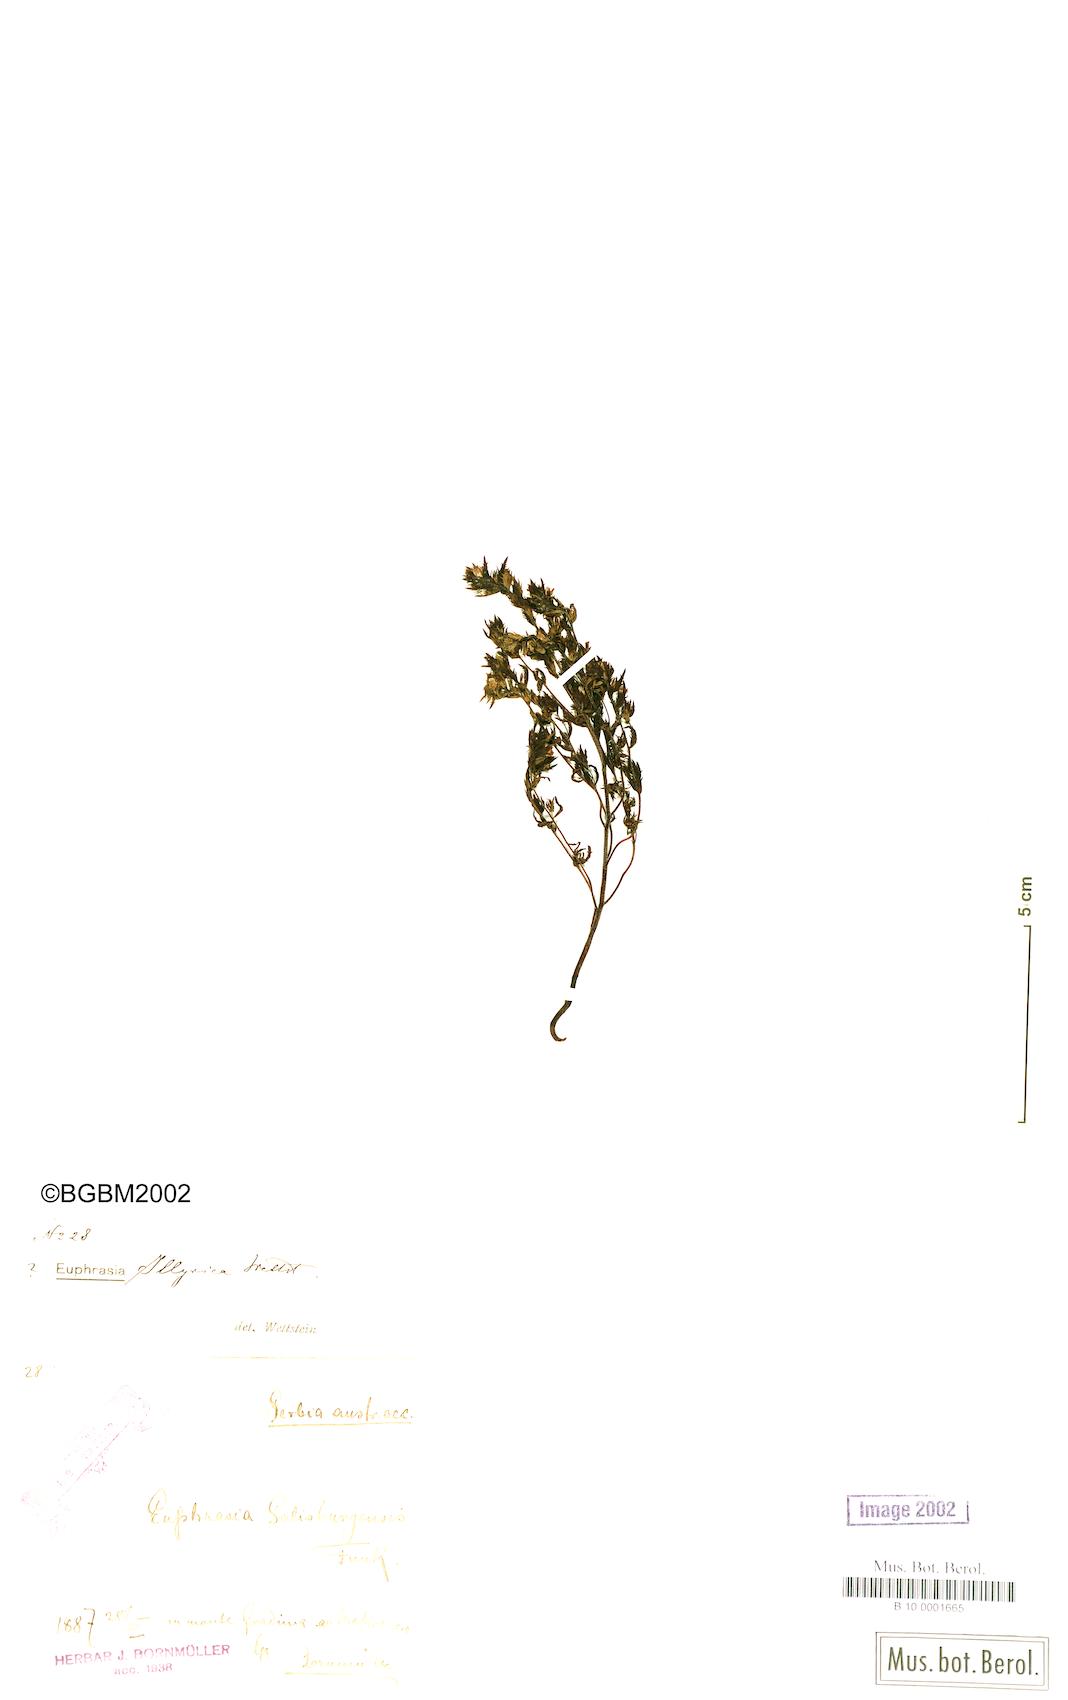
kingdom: Plantae
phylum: Tracheophyta
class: Magnoliopsida
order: Lamiales
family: Orobanchaceae
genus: Euphrasia
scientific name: Euphrasia illyrica
